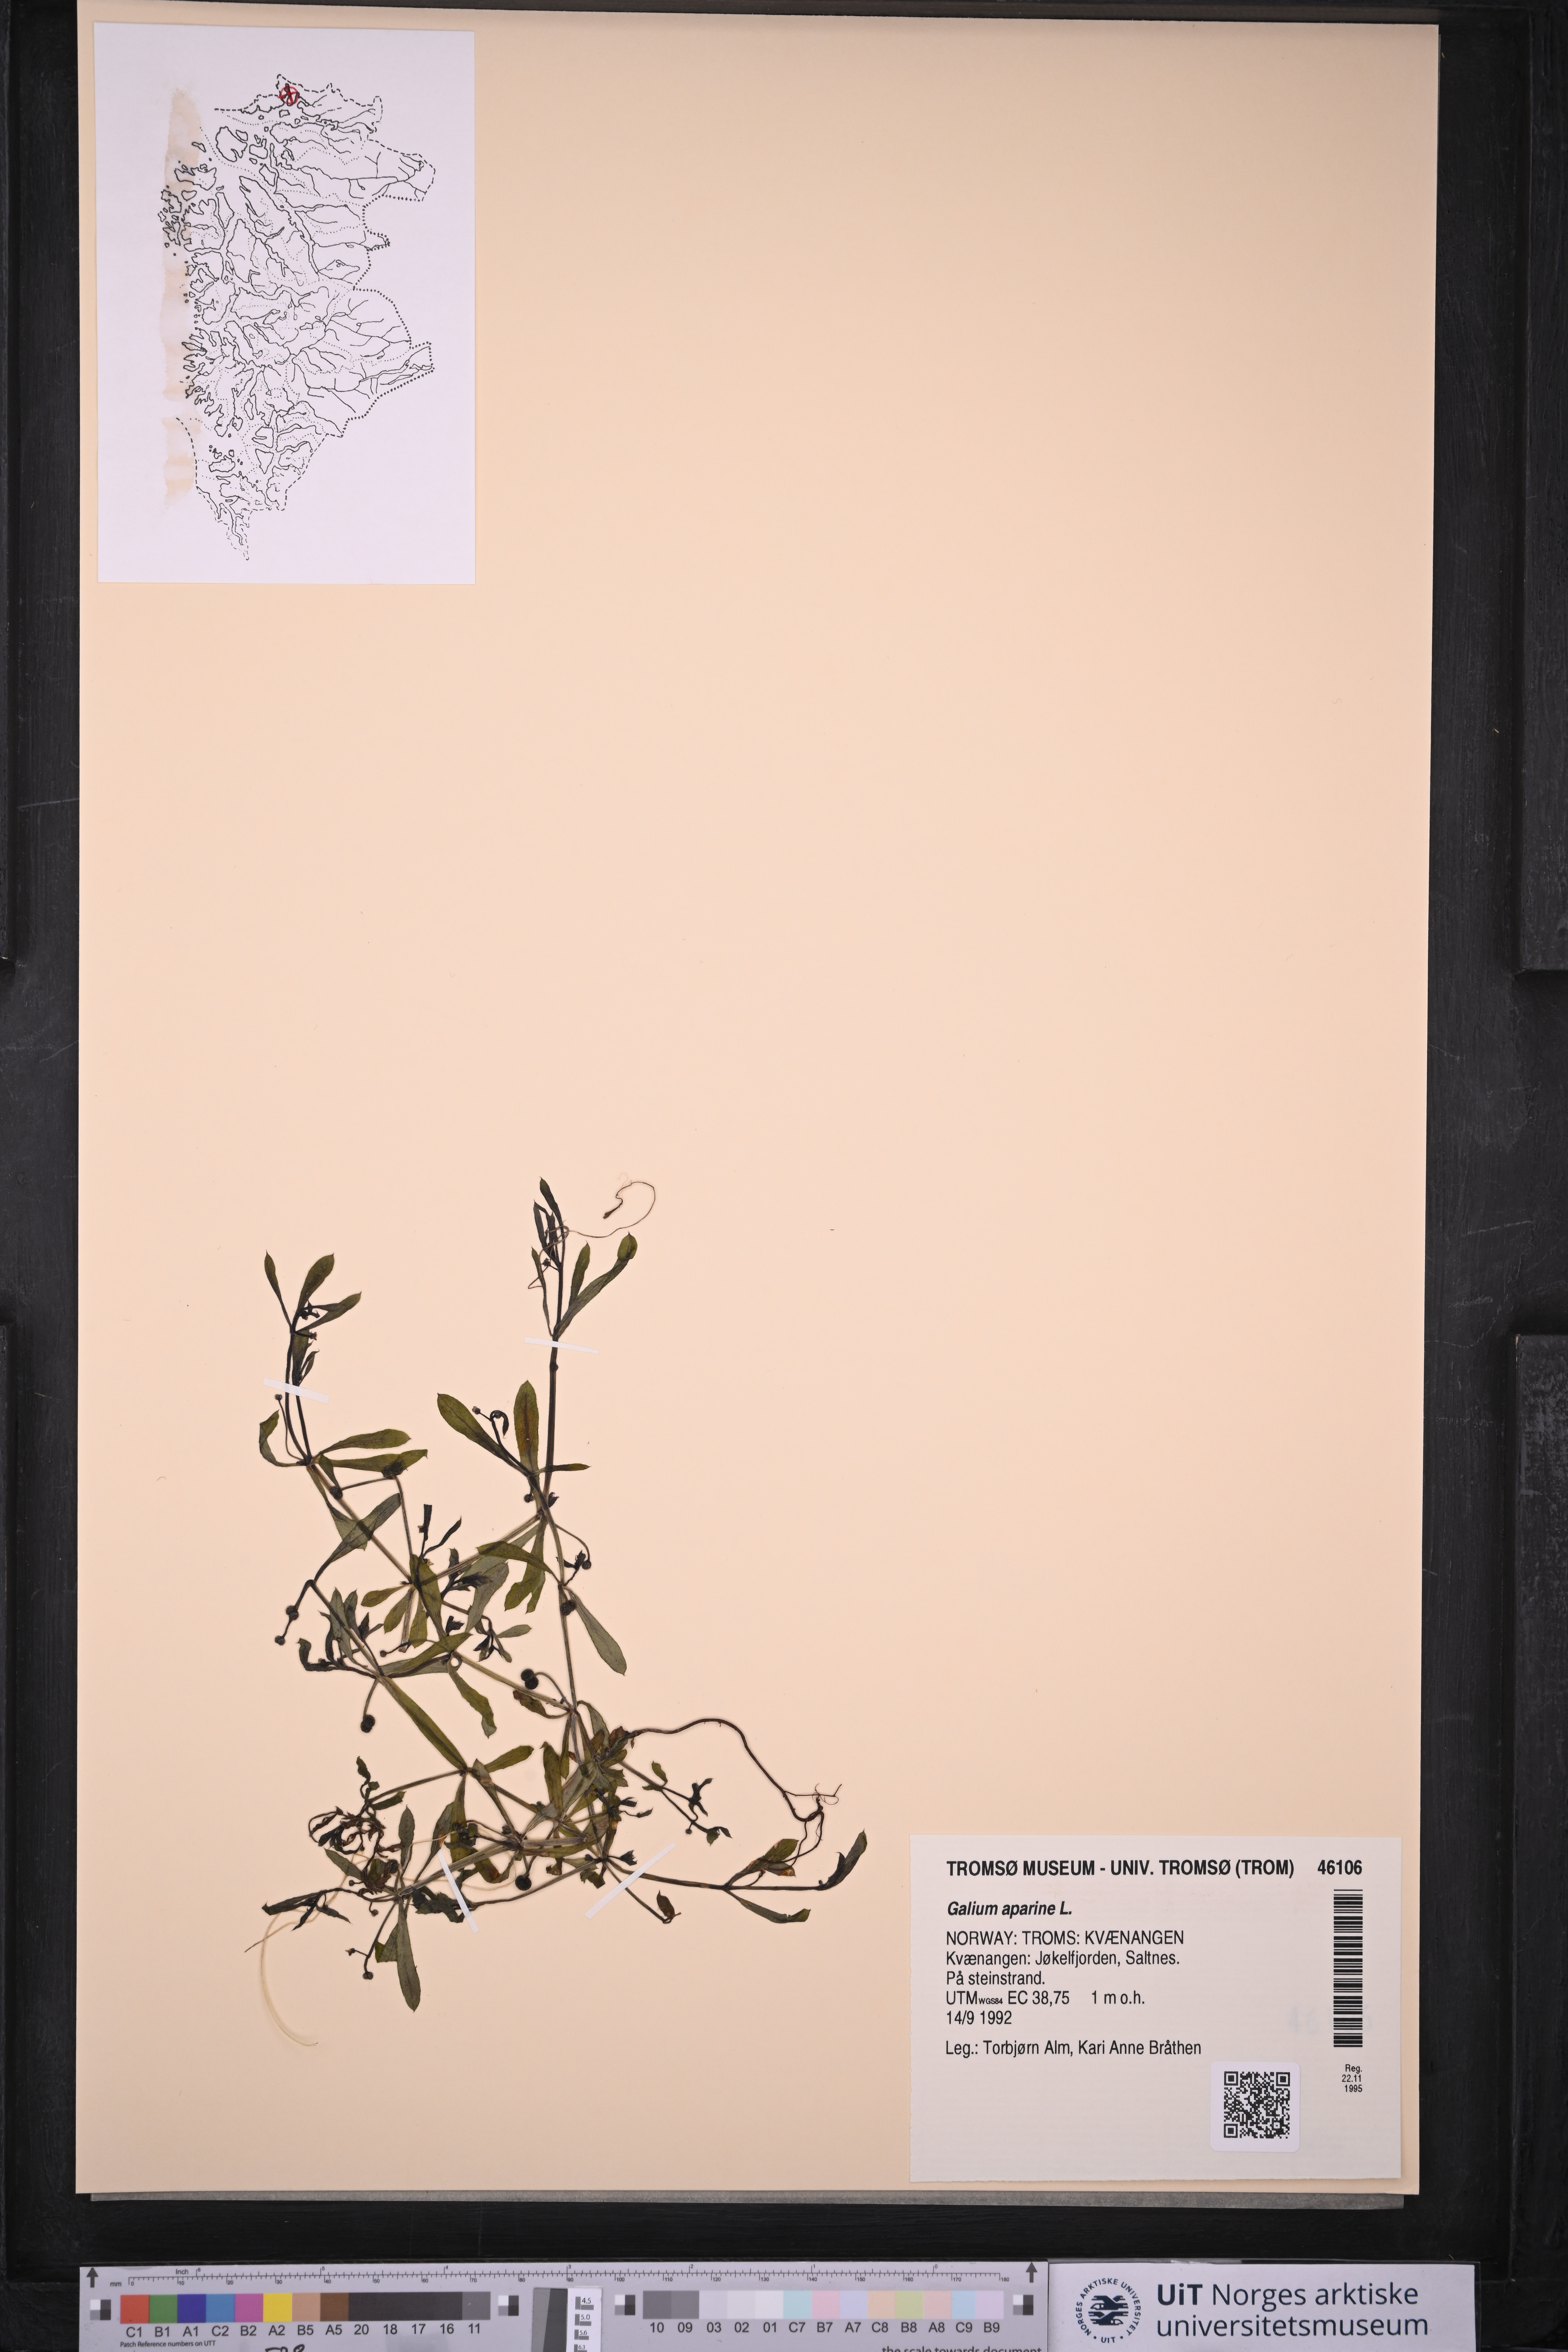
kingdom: Plantae
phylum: Tracheophyta
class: Magnoliopsida
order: Gentianales
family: Rubiaceae
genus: Galium
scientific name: Galium aparine
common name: Cleavers
